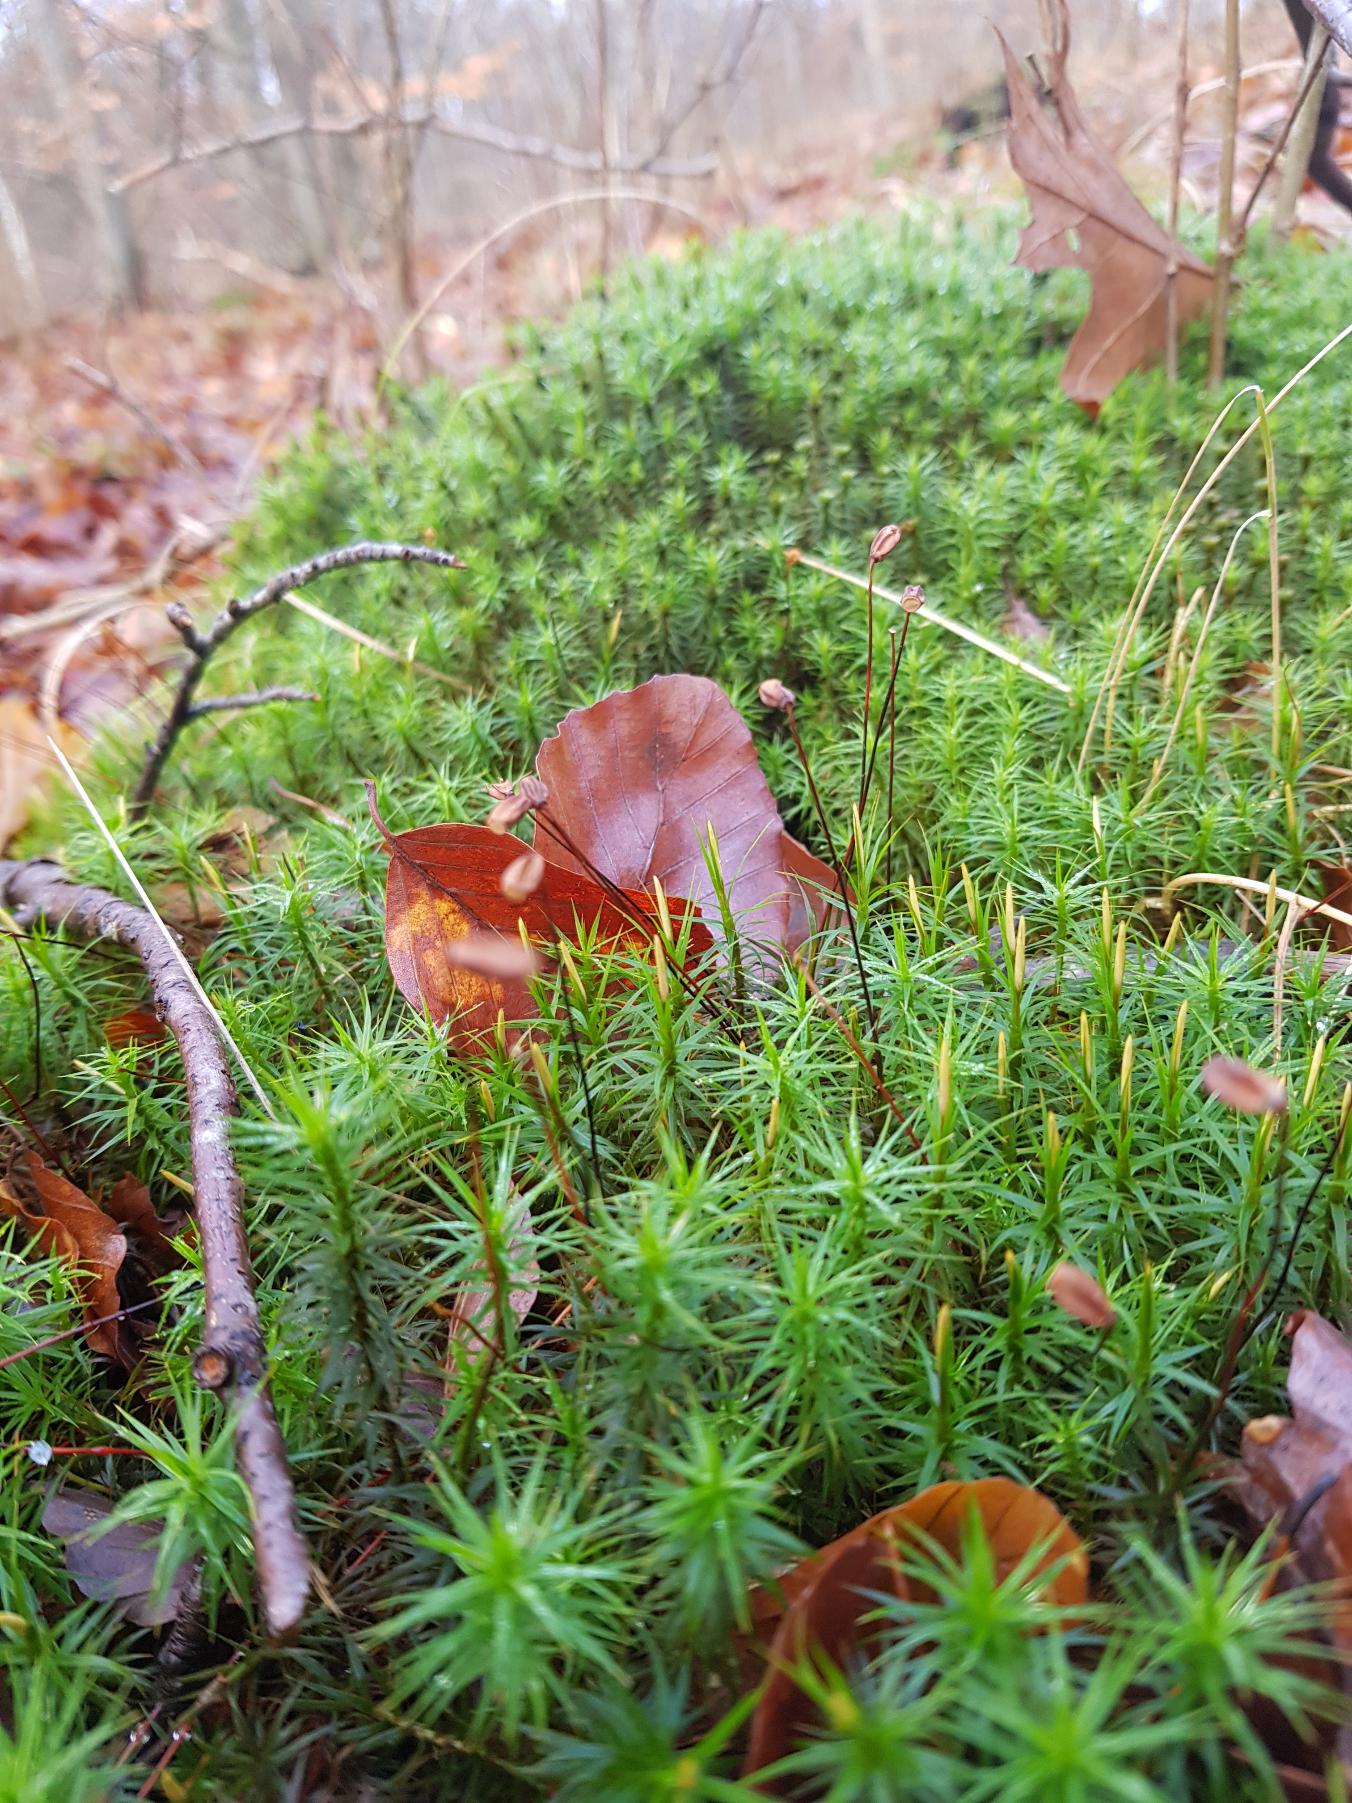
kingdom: Plantae
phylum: Bryophyta
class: Polytrichopsida
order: Polytrichales
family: Polytrichaceae
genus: Polytrichum
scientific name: Polytrichum formosum
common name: Skov-jomfruhår
